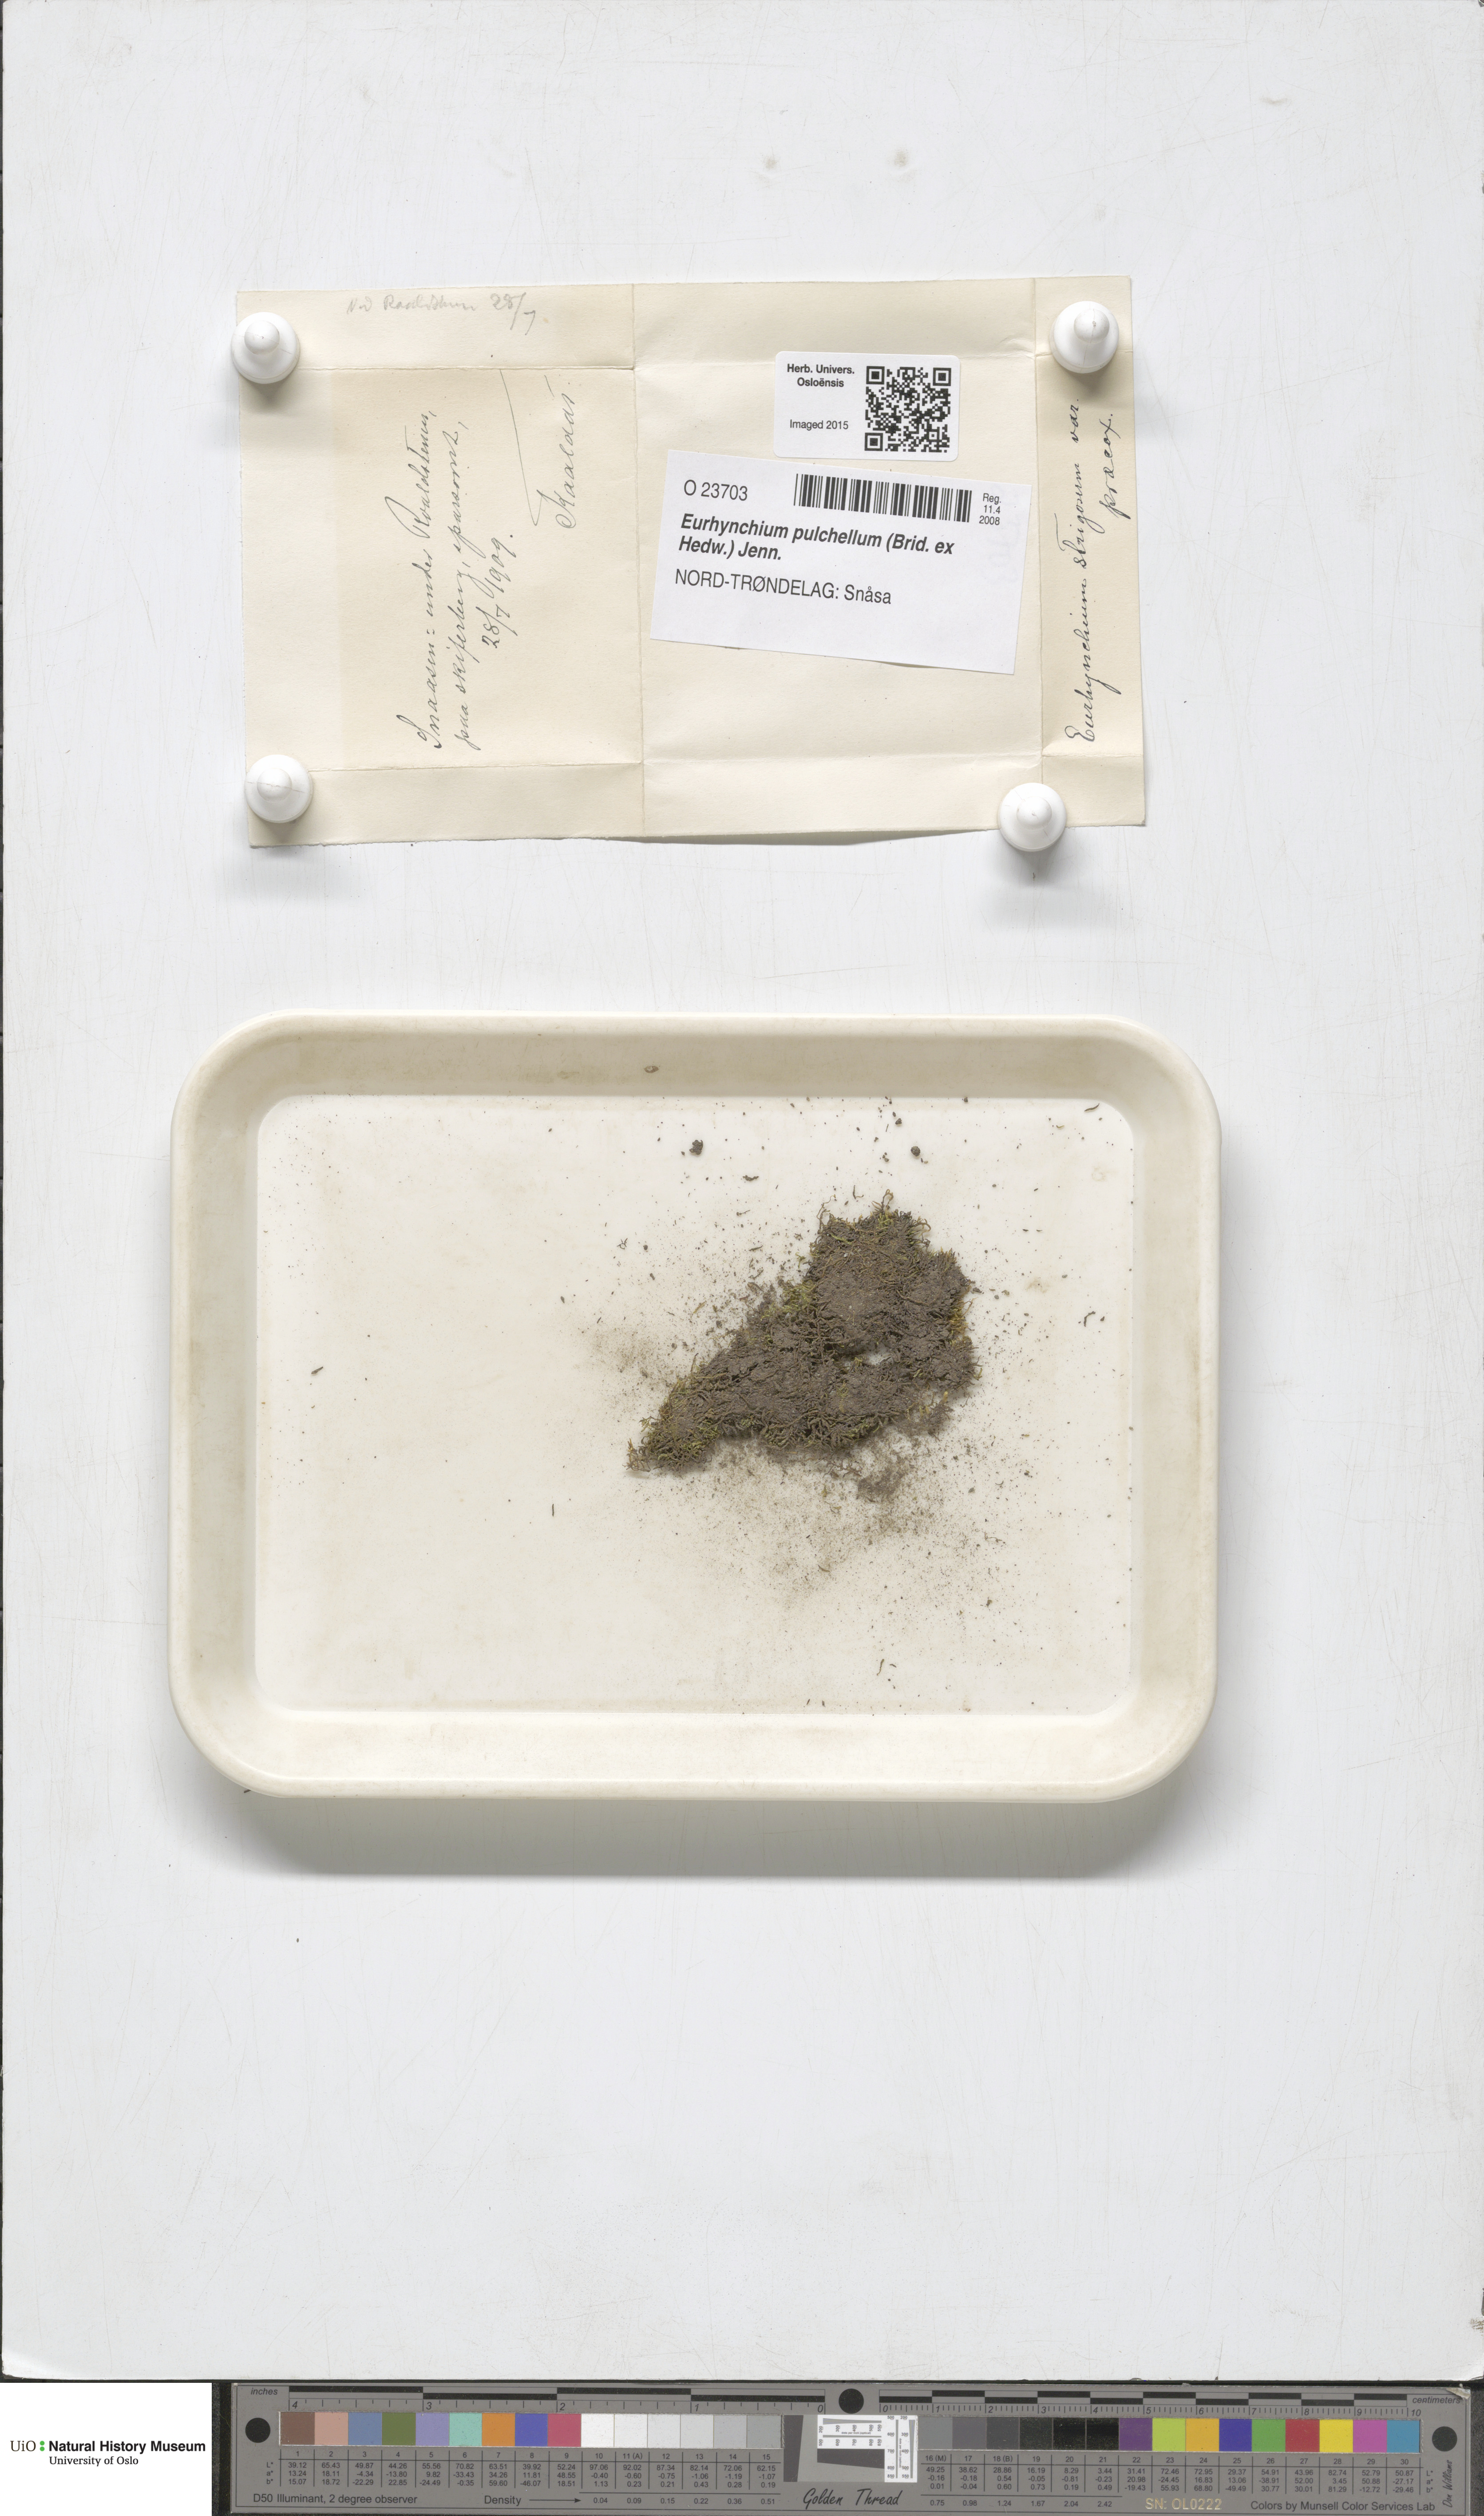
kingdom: Plantae
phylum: Bryophyta
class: Bryopsida
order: Hypnales
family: Brachytheciaceae
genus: Eurhynchiastrum
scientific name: Eurhynchiastrum pulchellum
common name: Elegant beaked moss
